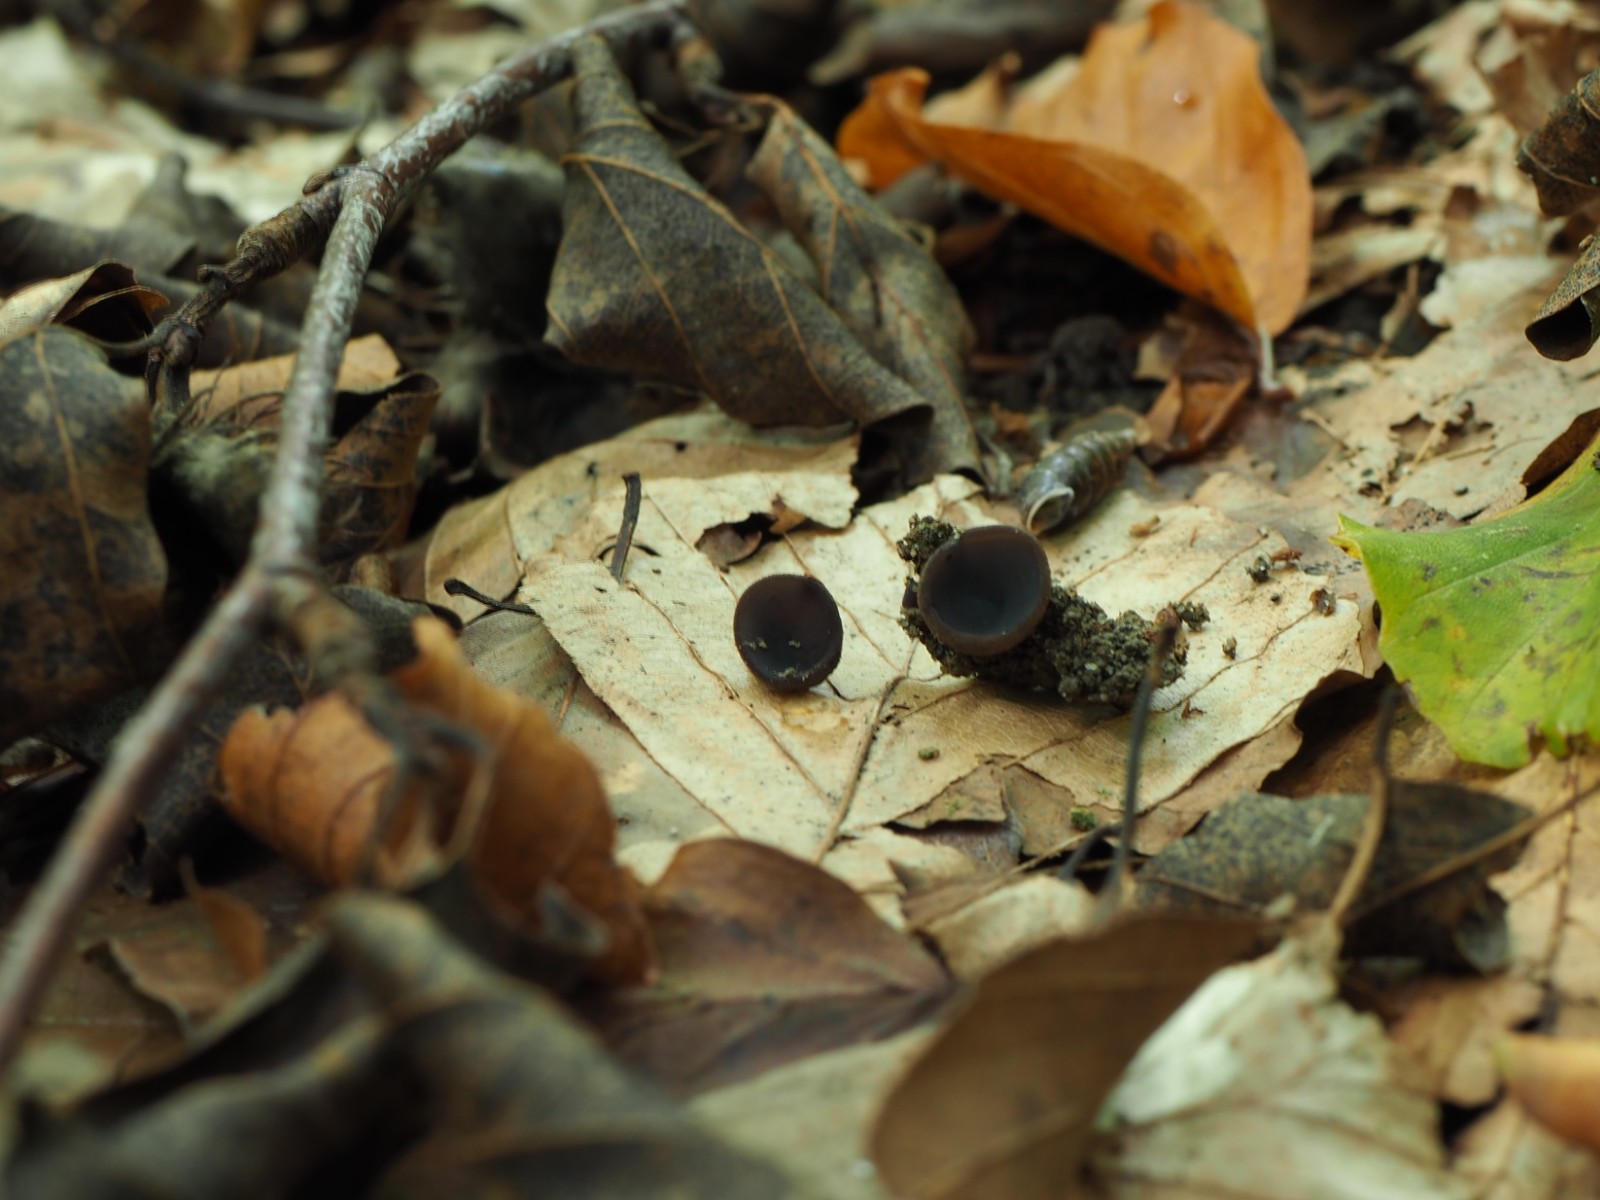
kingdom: Fungi
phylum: Ascomycota
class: Pezizomycetes
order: Pezizales
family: Pezizaceae
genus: Peziza
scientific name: Peziza saniosa
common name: blåmælket bægersvamp
